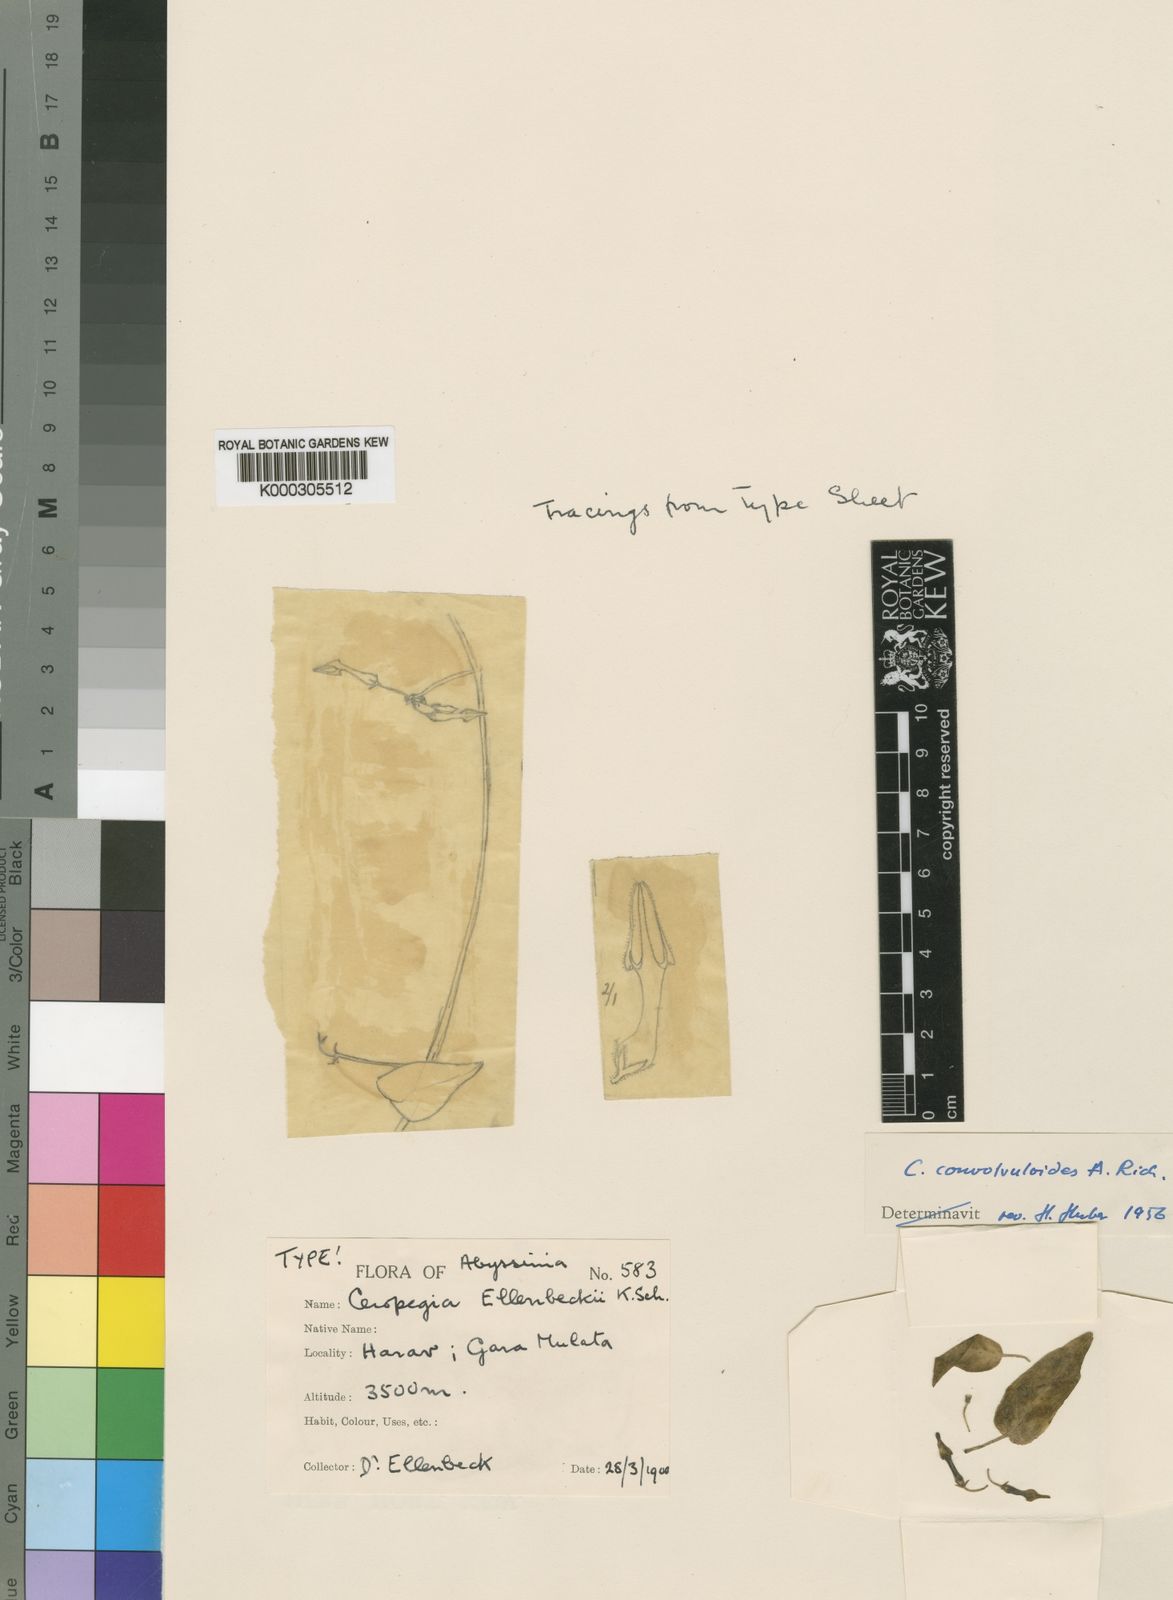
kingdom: Plantae
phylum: Tracheophyta
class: Magnoliopsida
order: Gentianales
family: Apocynaceae
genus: Ceropegia
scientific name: Ceropegia convolvuloides
